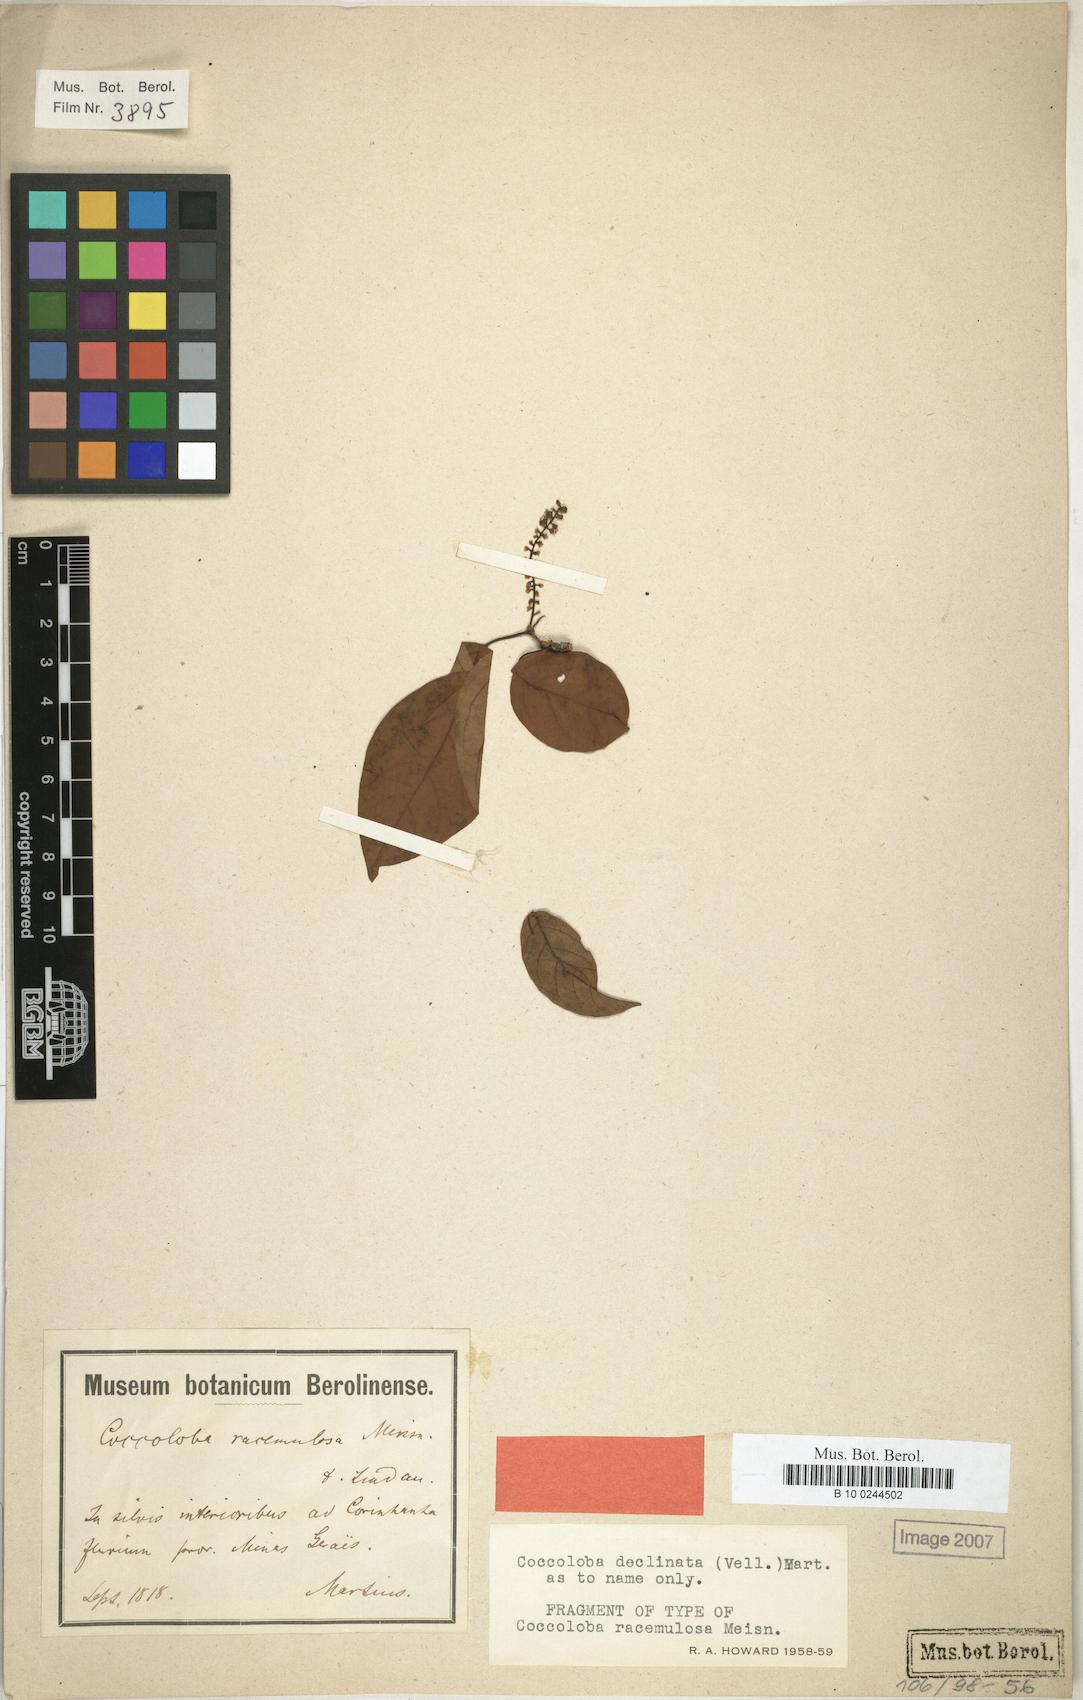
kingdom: Plantae
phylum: Tracheophyta
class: Magnoliopsida
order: Caryophyllales
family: Polygonaceae
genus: Coccoloba
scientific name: Coccoloba declinata
